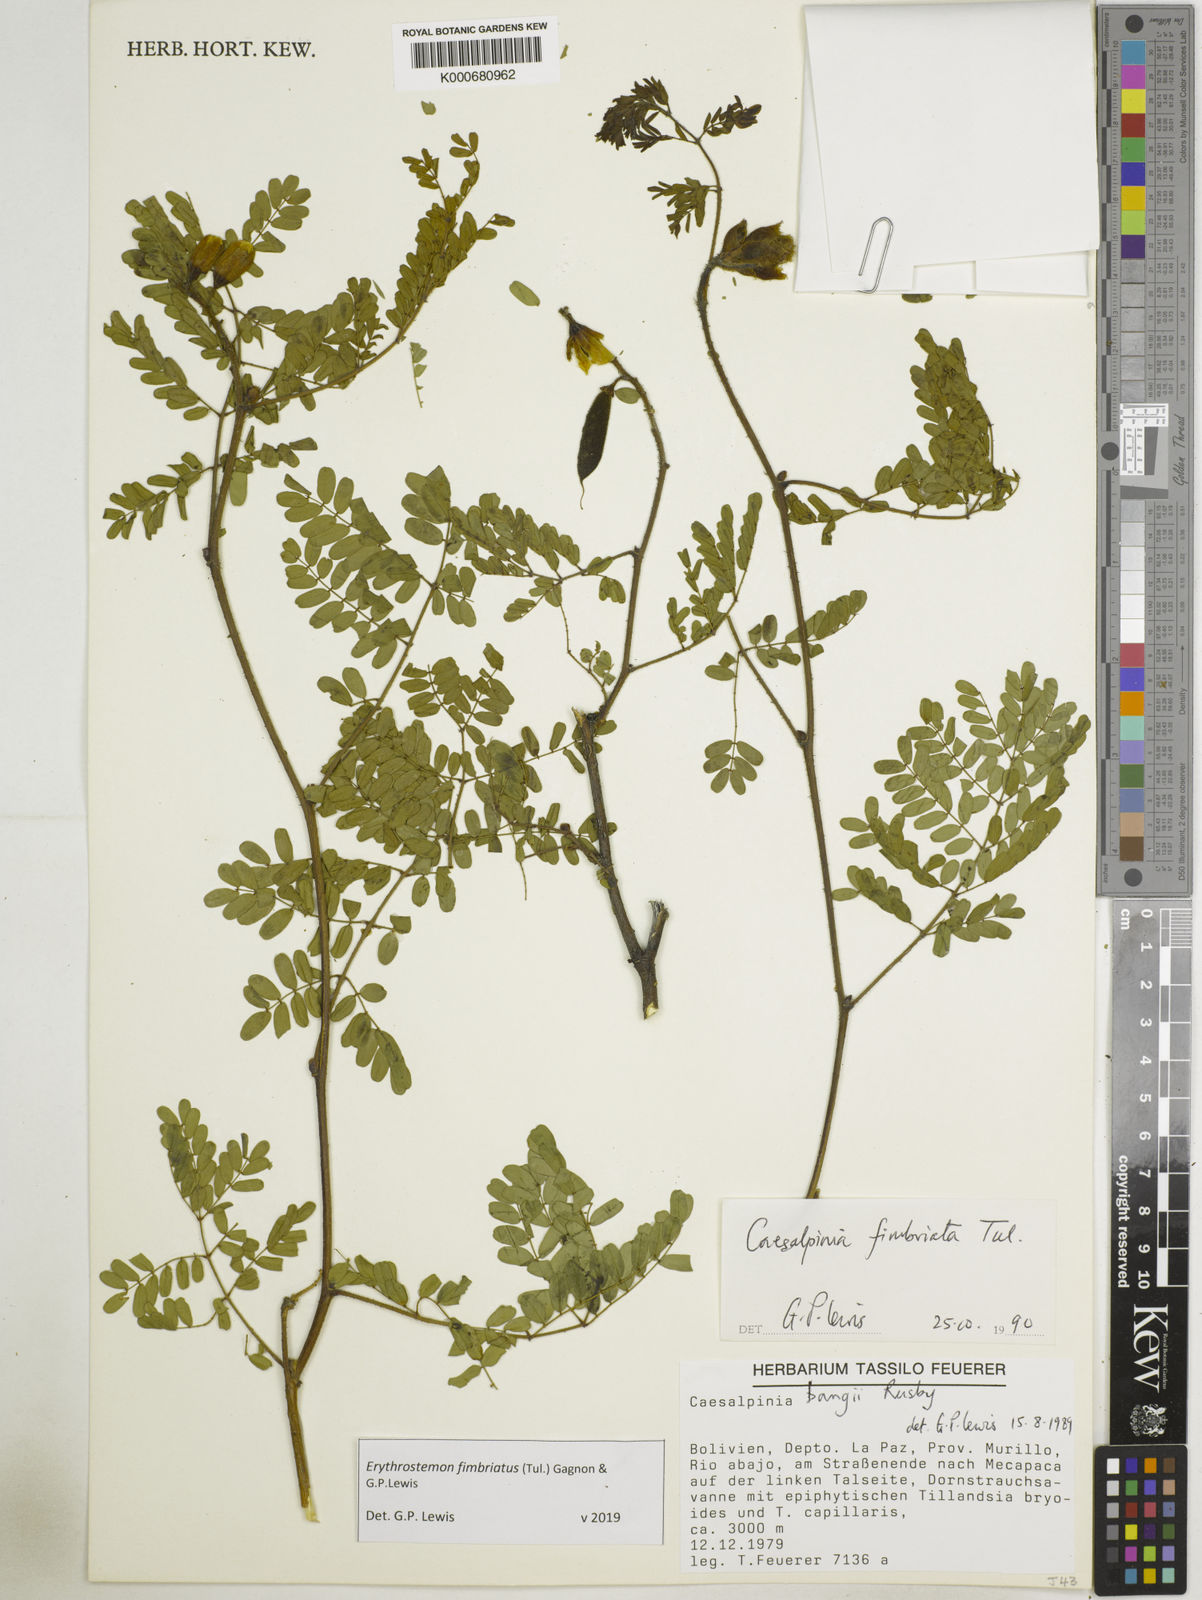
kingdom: Plantae
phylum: Tracheophyta
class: Magnoliopsida
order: Fabales
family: Fabaceae
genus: Erythrostemon
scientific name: Erythrostemon fimbriatus
